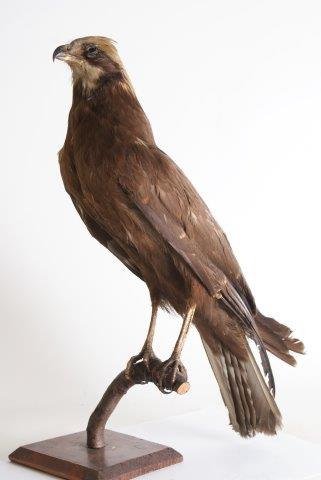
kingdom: Animalia
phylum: Chordata
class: Aves
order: Accipitriformes
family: Accipitridae
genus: Circus
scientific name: Circus aeruginosus
